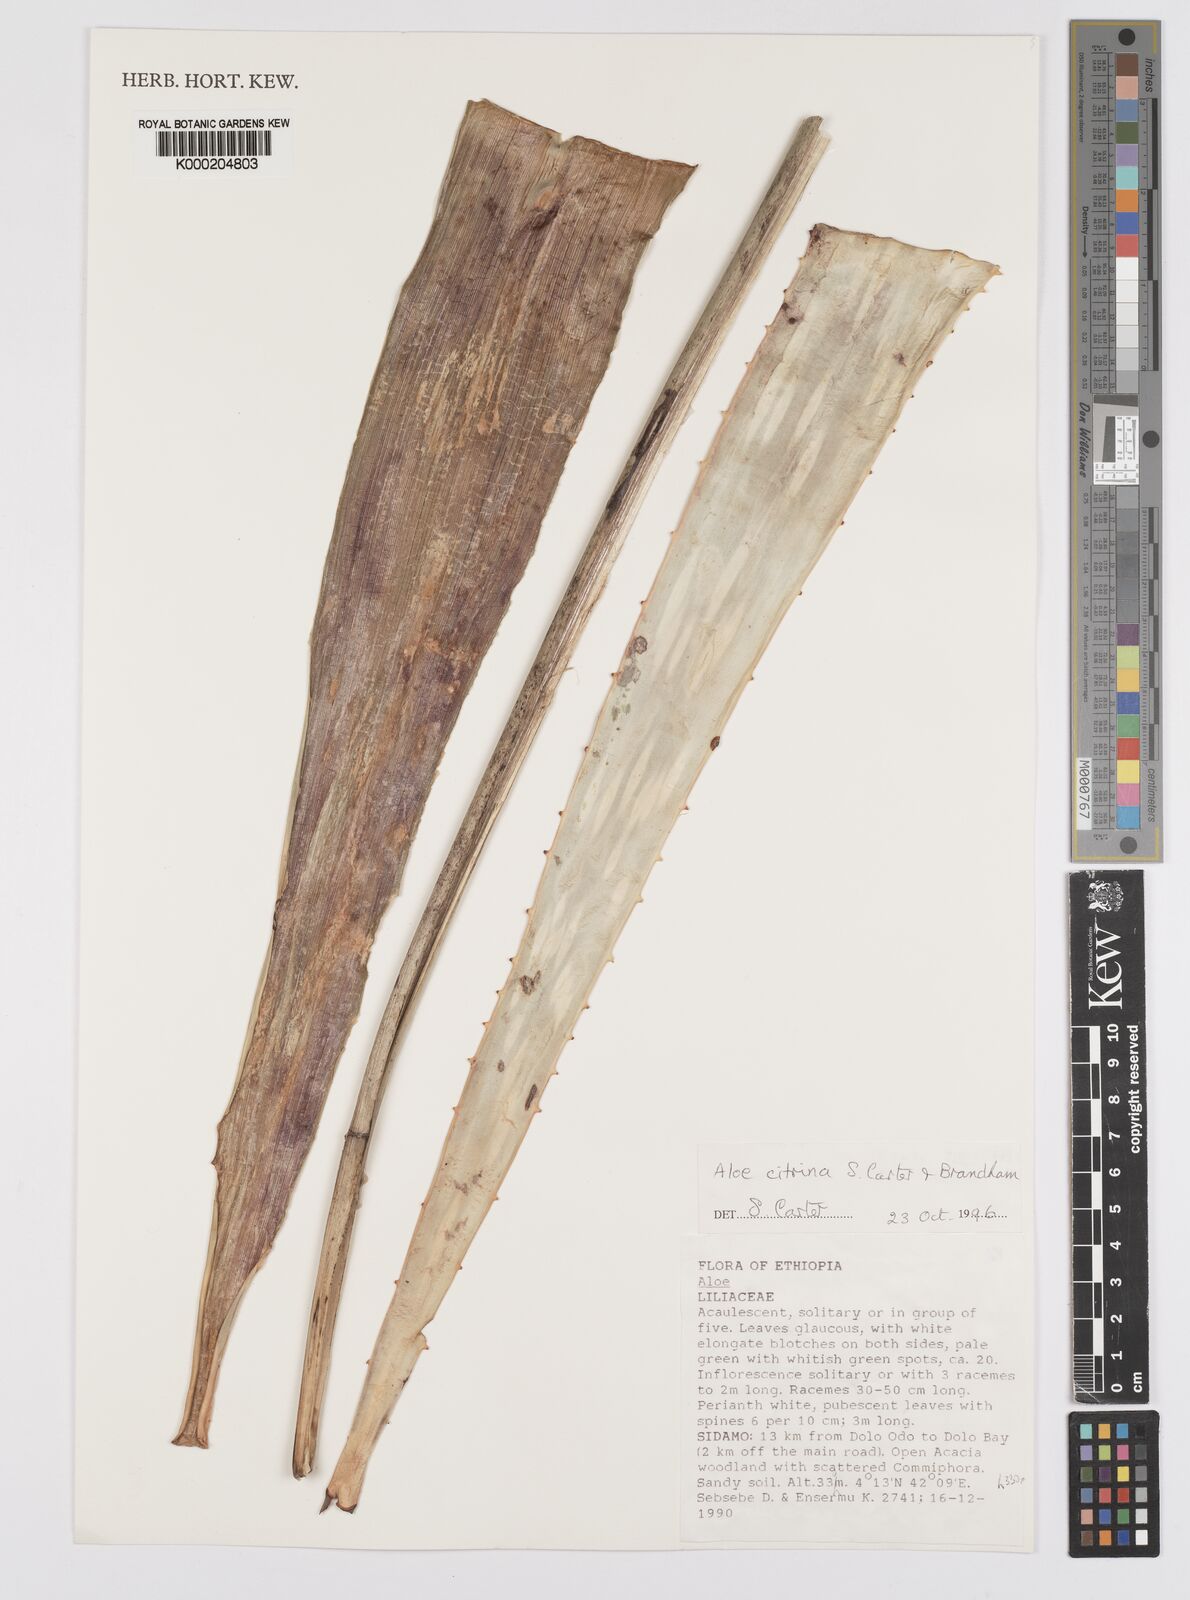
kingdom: Plantae
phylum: Tracheophyta
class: Liliopsida
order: Asparagales
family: Asphodelaceae
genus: Aloe
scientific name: Aloe citrina
